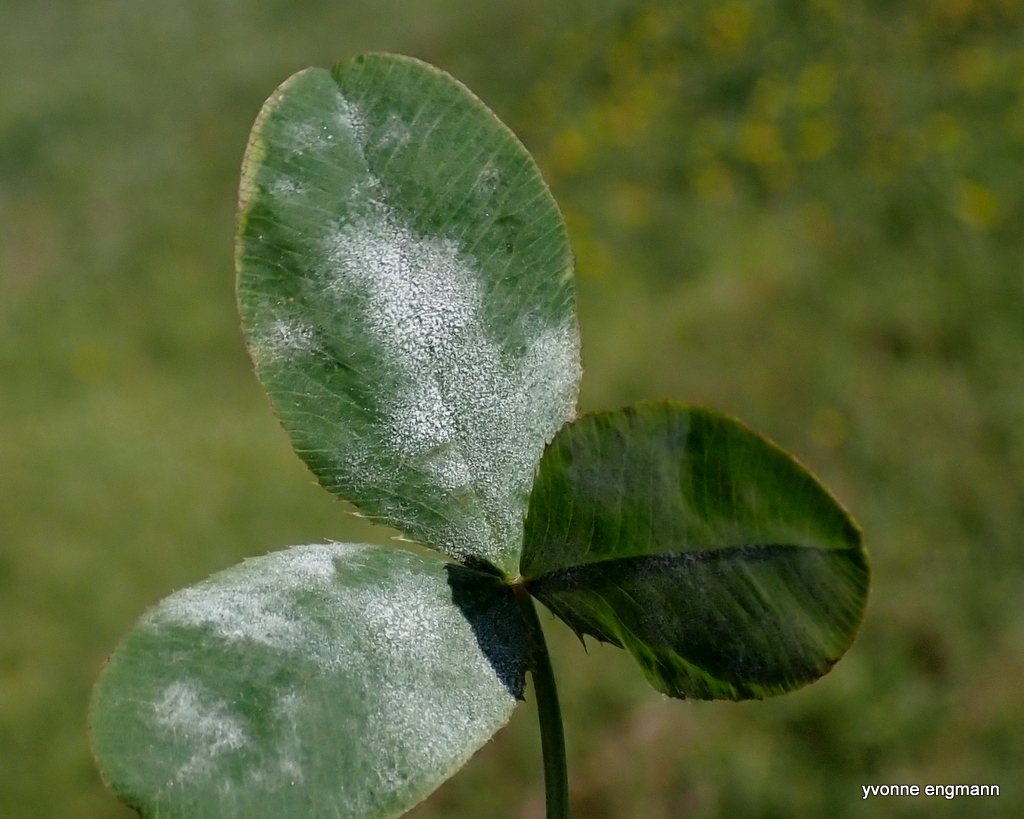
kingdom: Fungi
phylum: Ascomycota
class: Leotiomycetes
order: Helotiales
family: Erysiphaceae
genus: Erysiphe
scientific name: Erysiphe
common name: meldug
